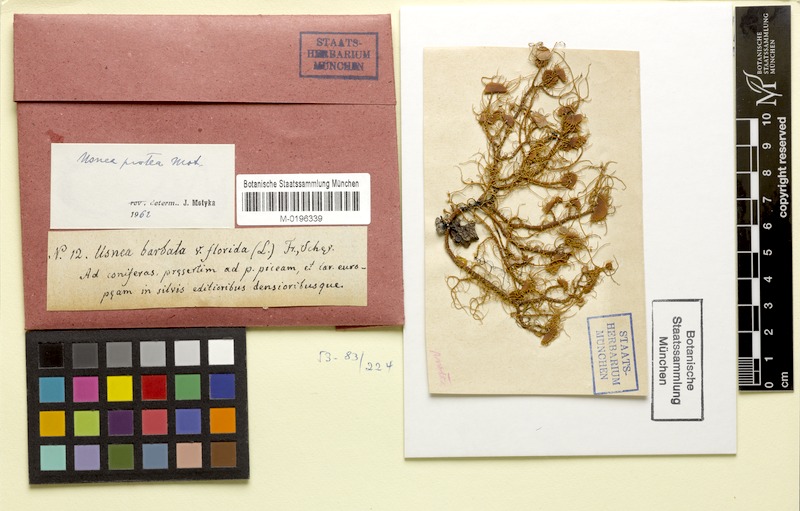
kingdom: Fungi
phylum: Ascomycota
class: Lecanoromycetes
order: Lecanorales
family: Parmeliaceae
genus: Usnea
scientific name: Usnea quasirigida
